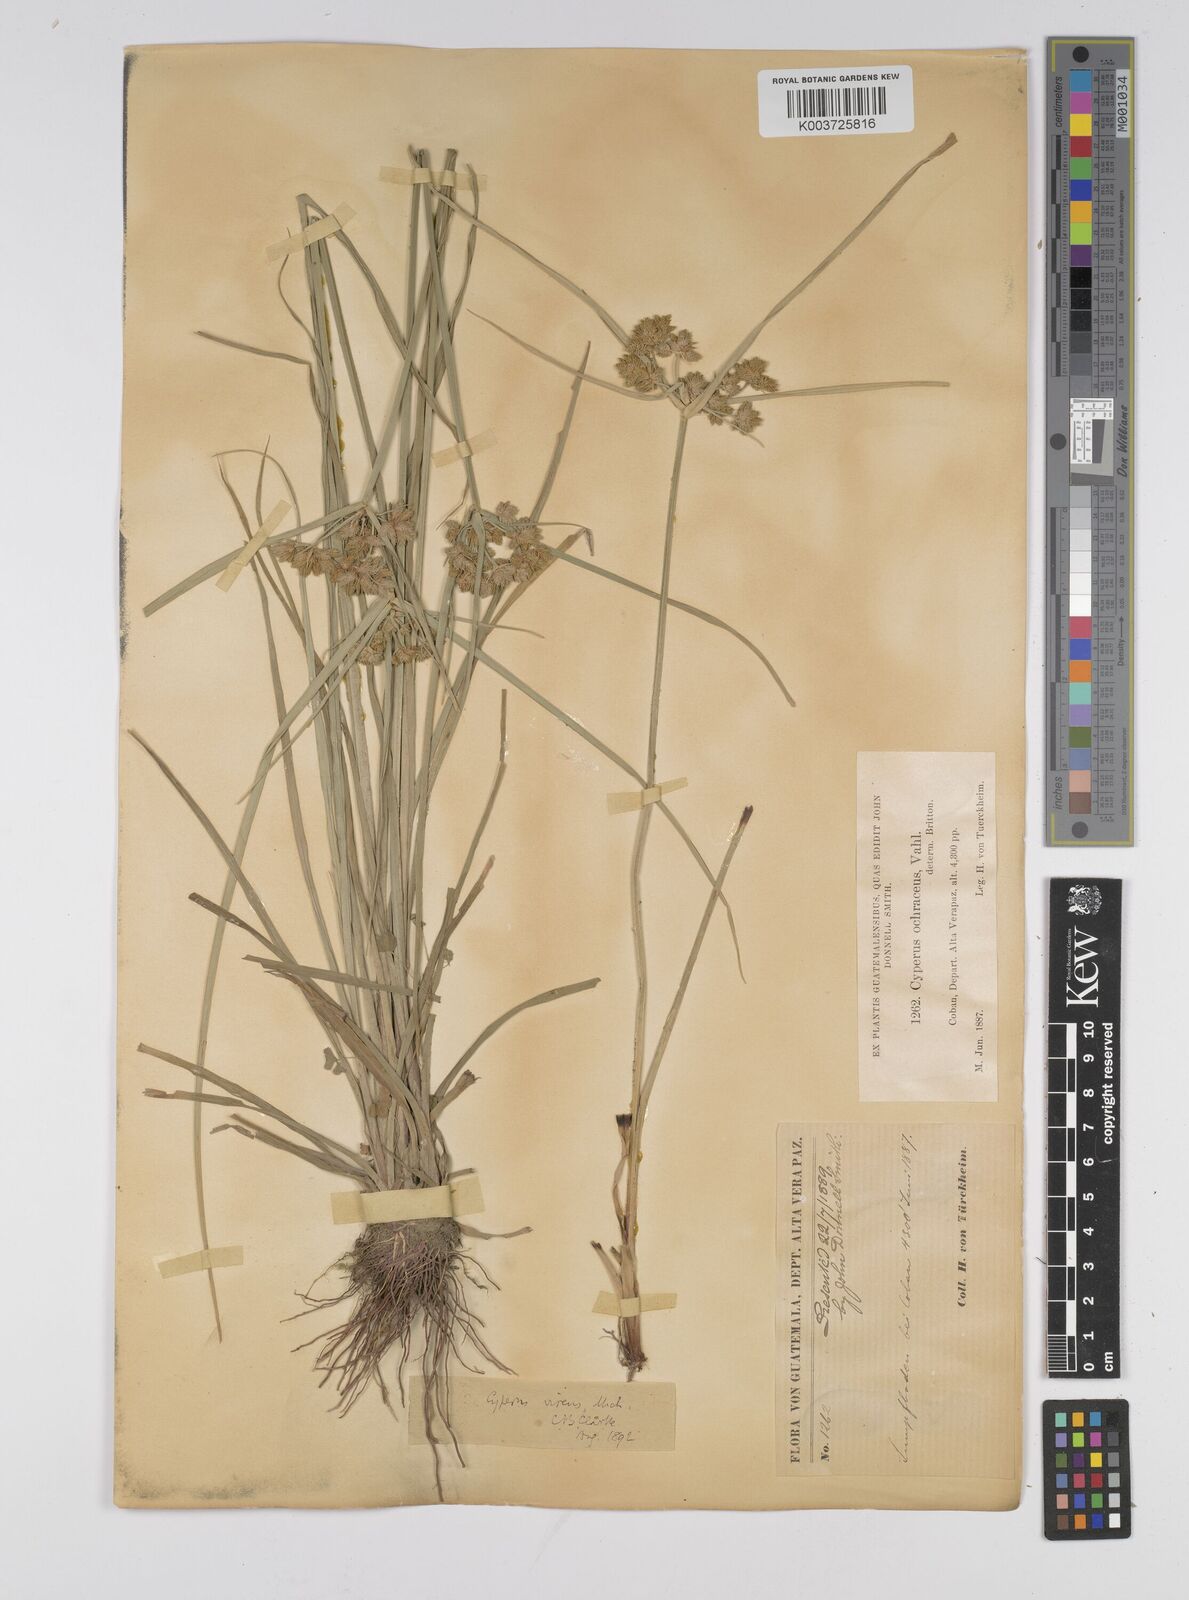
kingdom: Plantae
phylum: Tracheophyta
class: Liliopsida
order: Poales
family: Cyperaceae
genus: Cyperus
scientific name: Cyperus virens
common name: Green flatsedge
